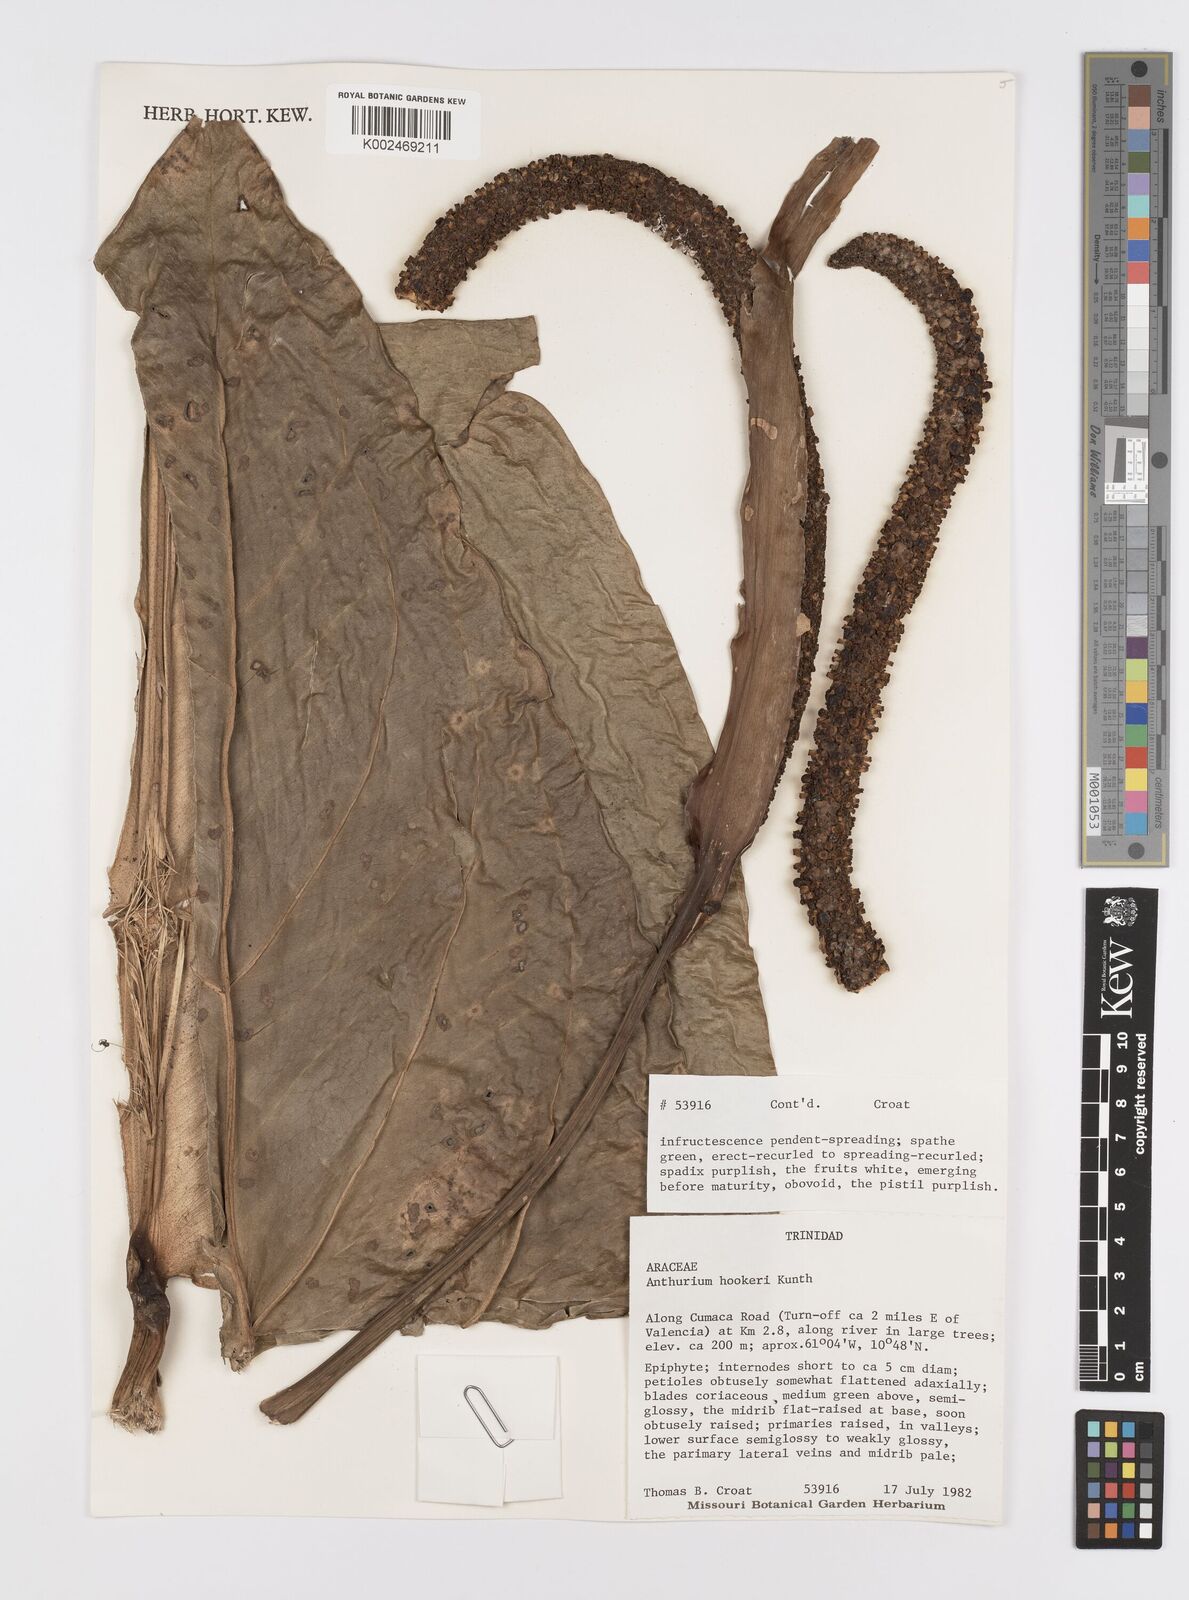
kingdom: Plantae
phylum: Tracheophyta
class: Liliopsida
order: Alismatales
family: Araceae
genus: Anthurium
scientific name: Anthurium hookeri
